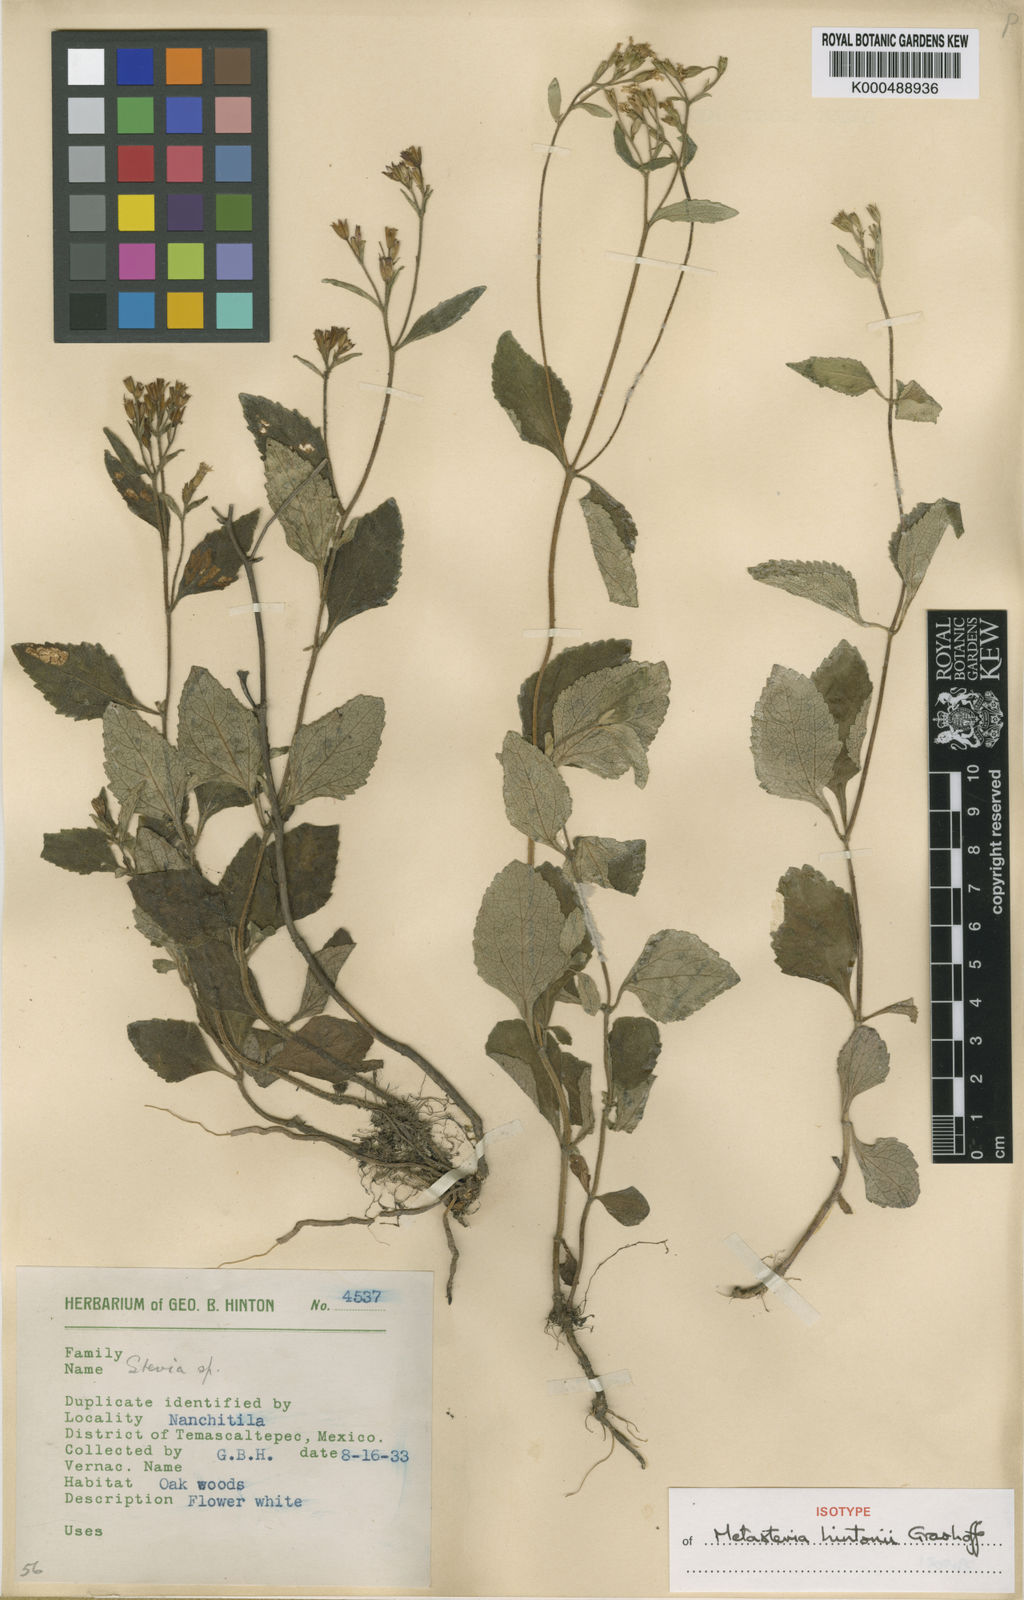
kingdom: Plantae
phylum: Tracheophyta
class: Magnoliopsida
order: Asterales
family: Asteraceae
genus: Stevia
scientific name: Stevia hintonii
